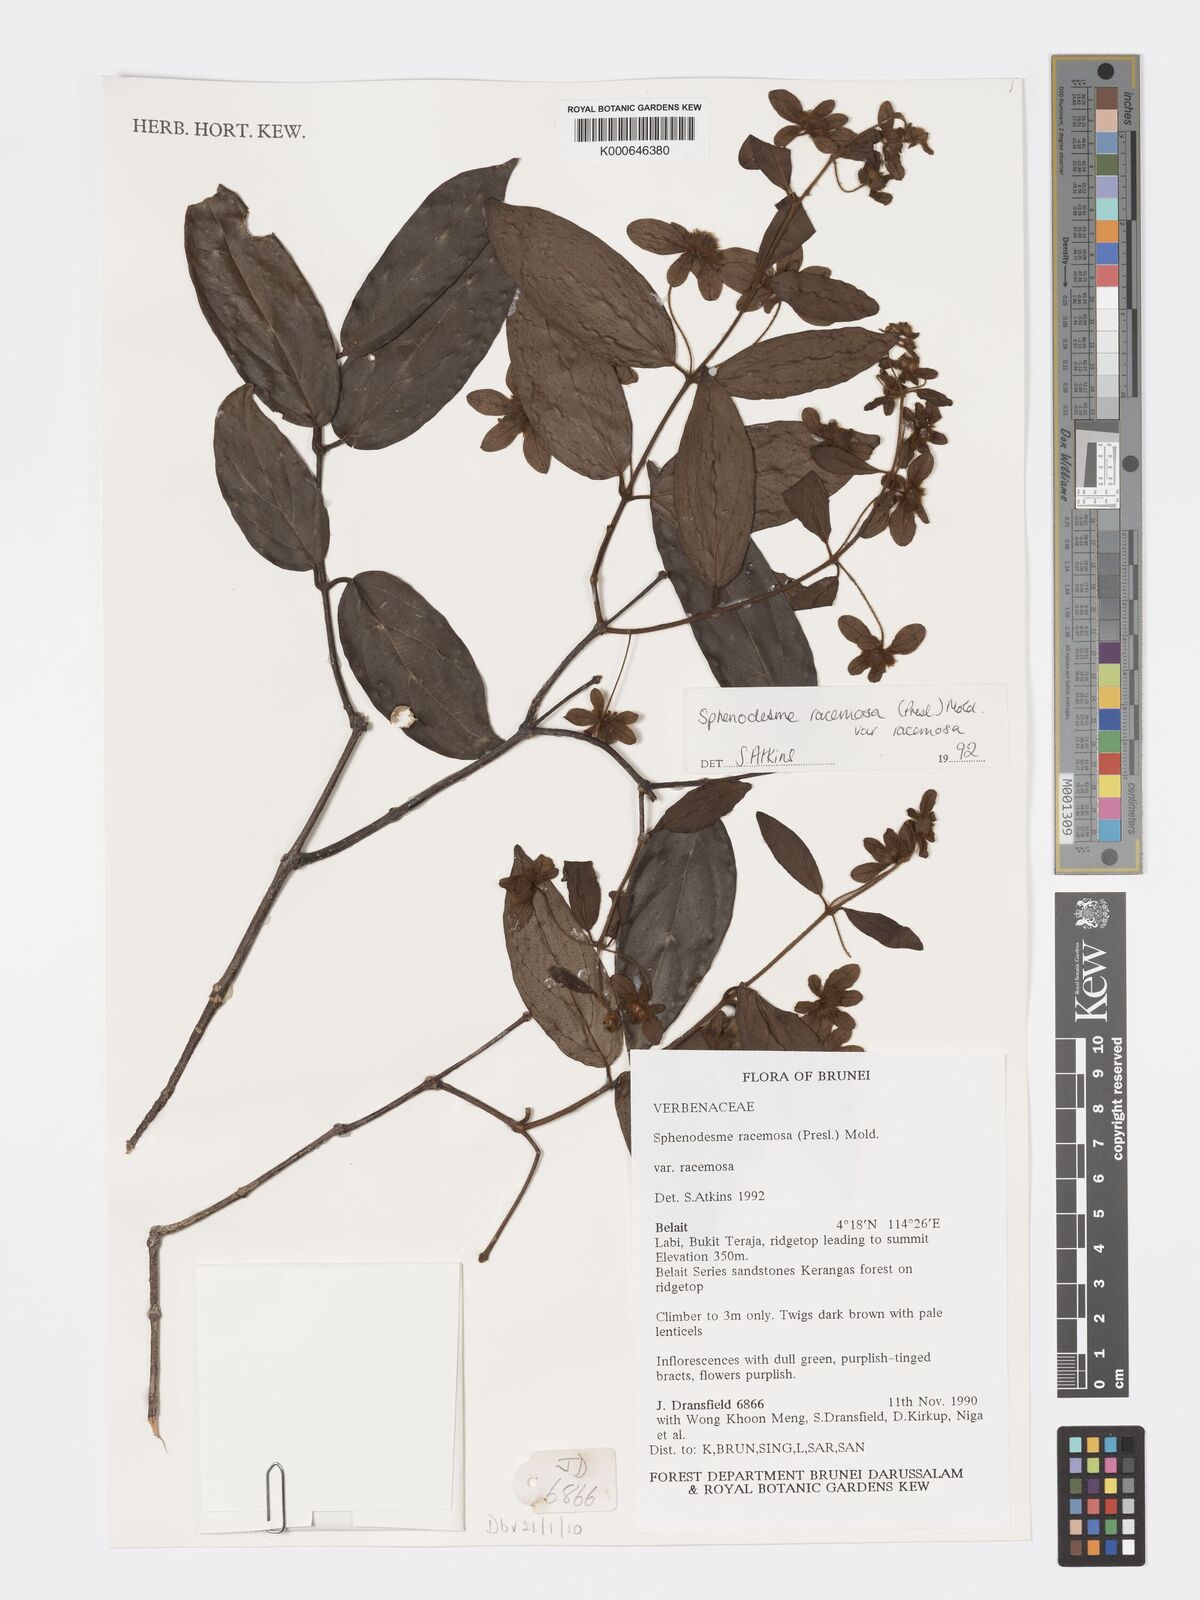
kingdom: Plantae
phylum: Tracheophyta
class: Magnoliopsida
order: Lamiales
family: Lamiaceae
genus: Sphenodesme
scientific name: Sphenodesme racemosa
